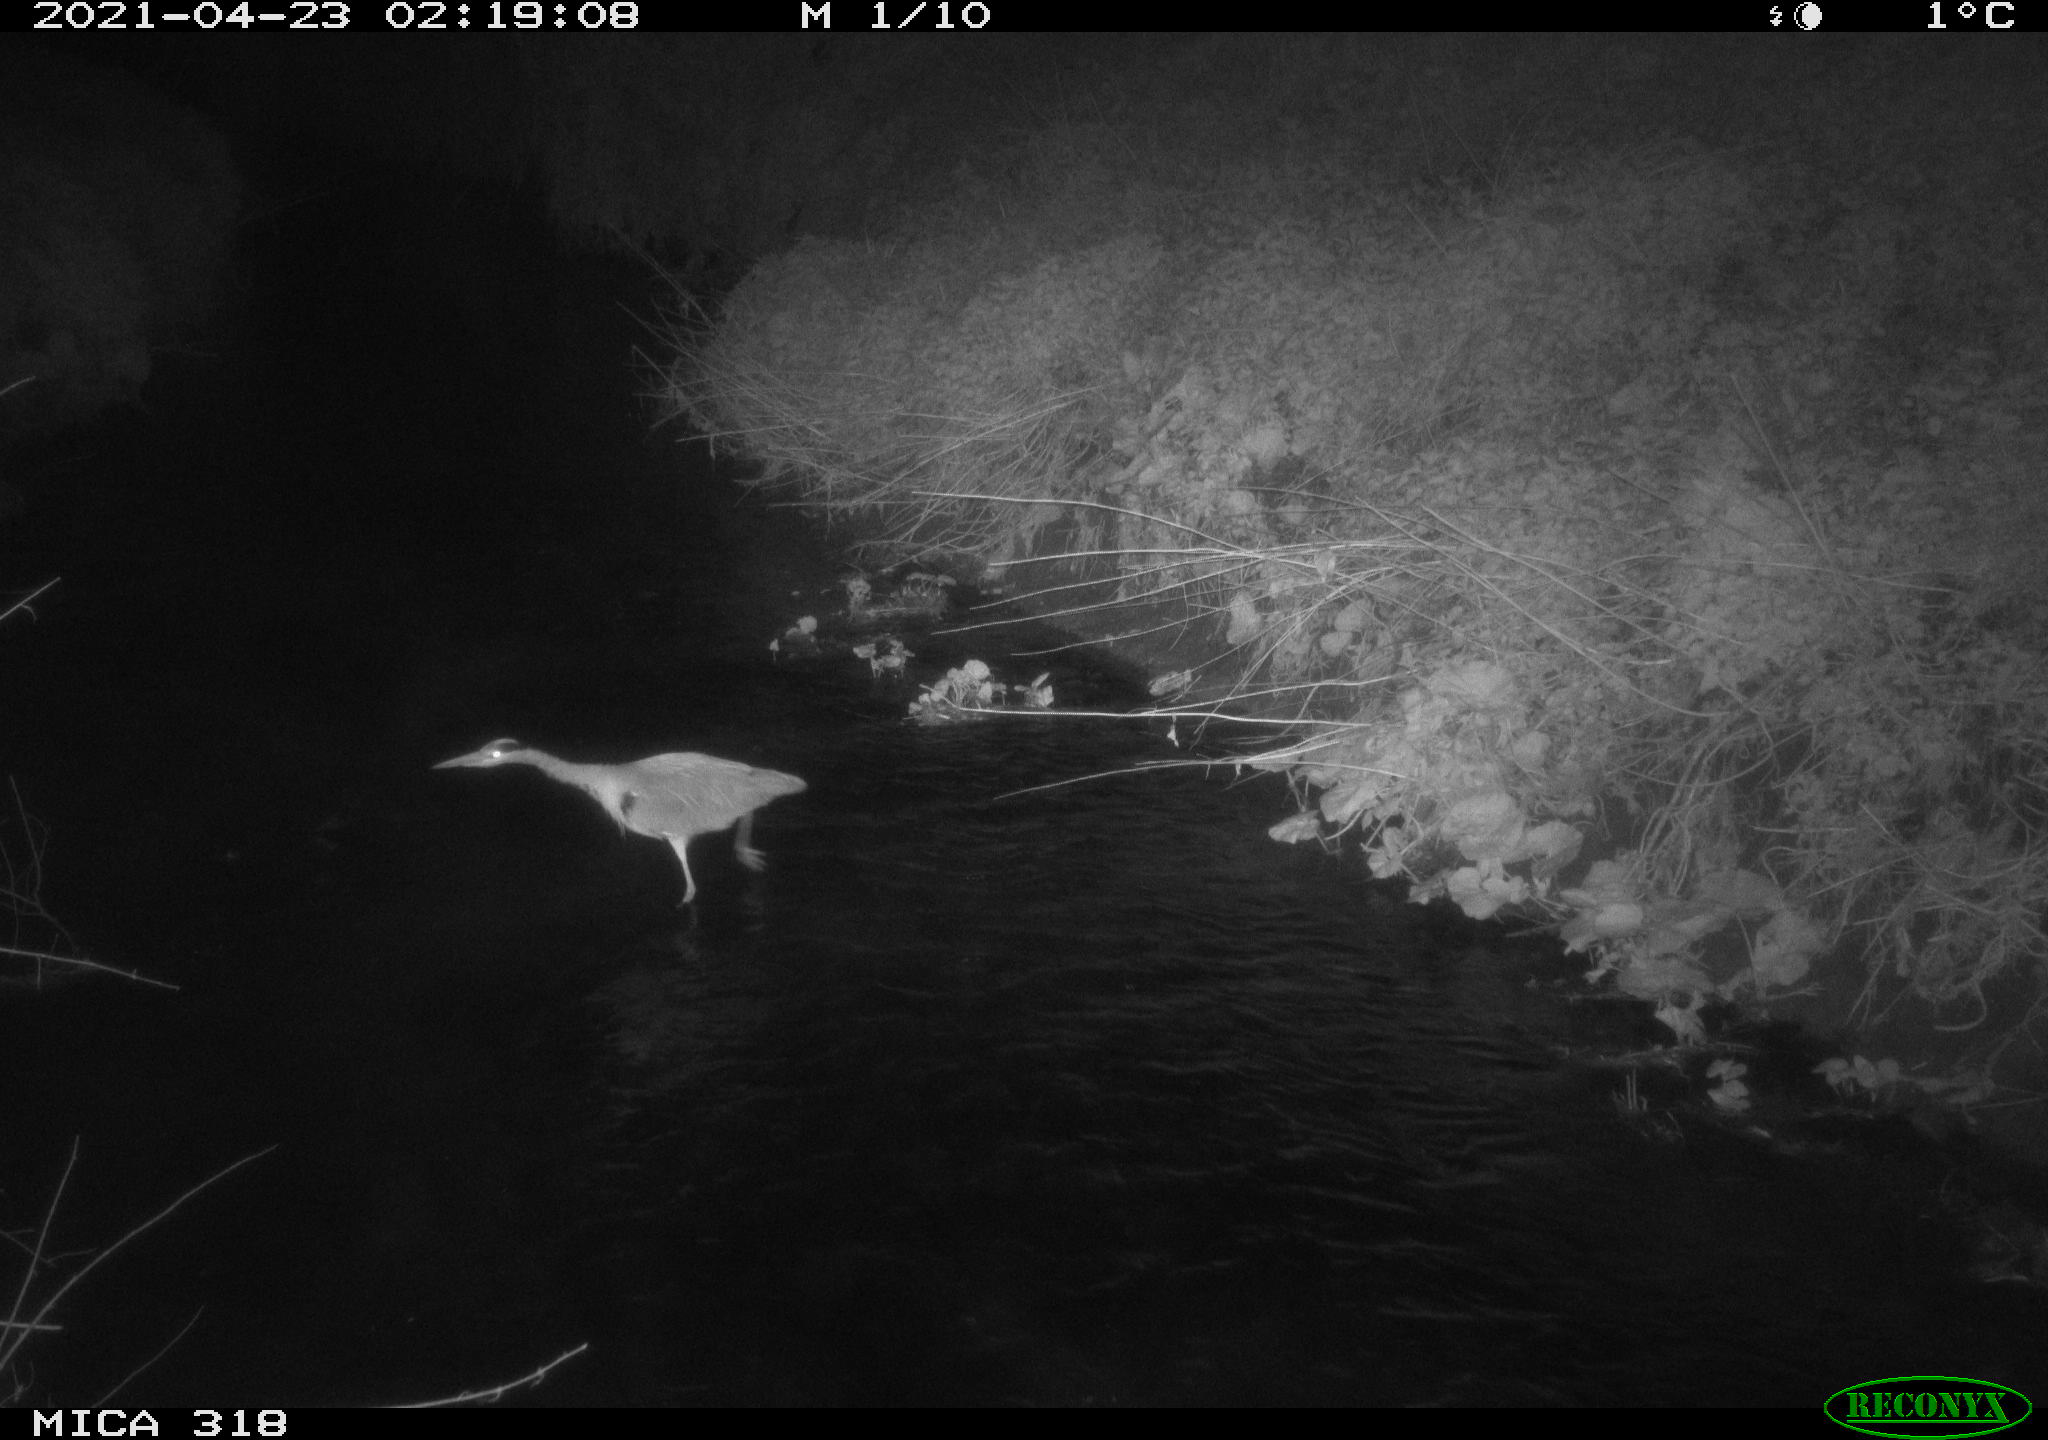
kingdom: Animalia
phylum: Chordata
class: Aves
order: Pelecaniformes
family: Ardeidae
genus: Ardea
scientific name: Ardea cinerea
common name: Grey heron
